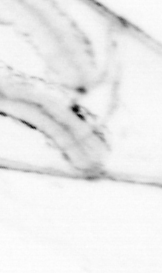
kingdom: Animalia
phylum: Chaetognatha
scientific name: Chaetognatha
